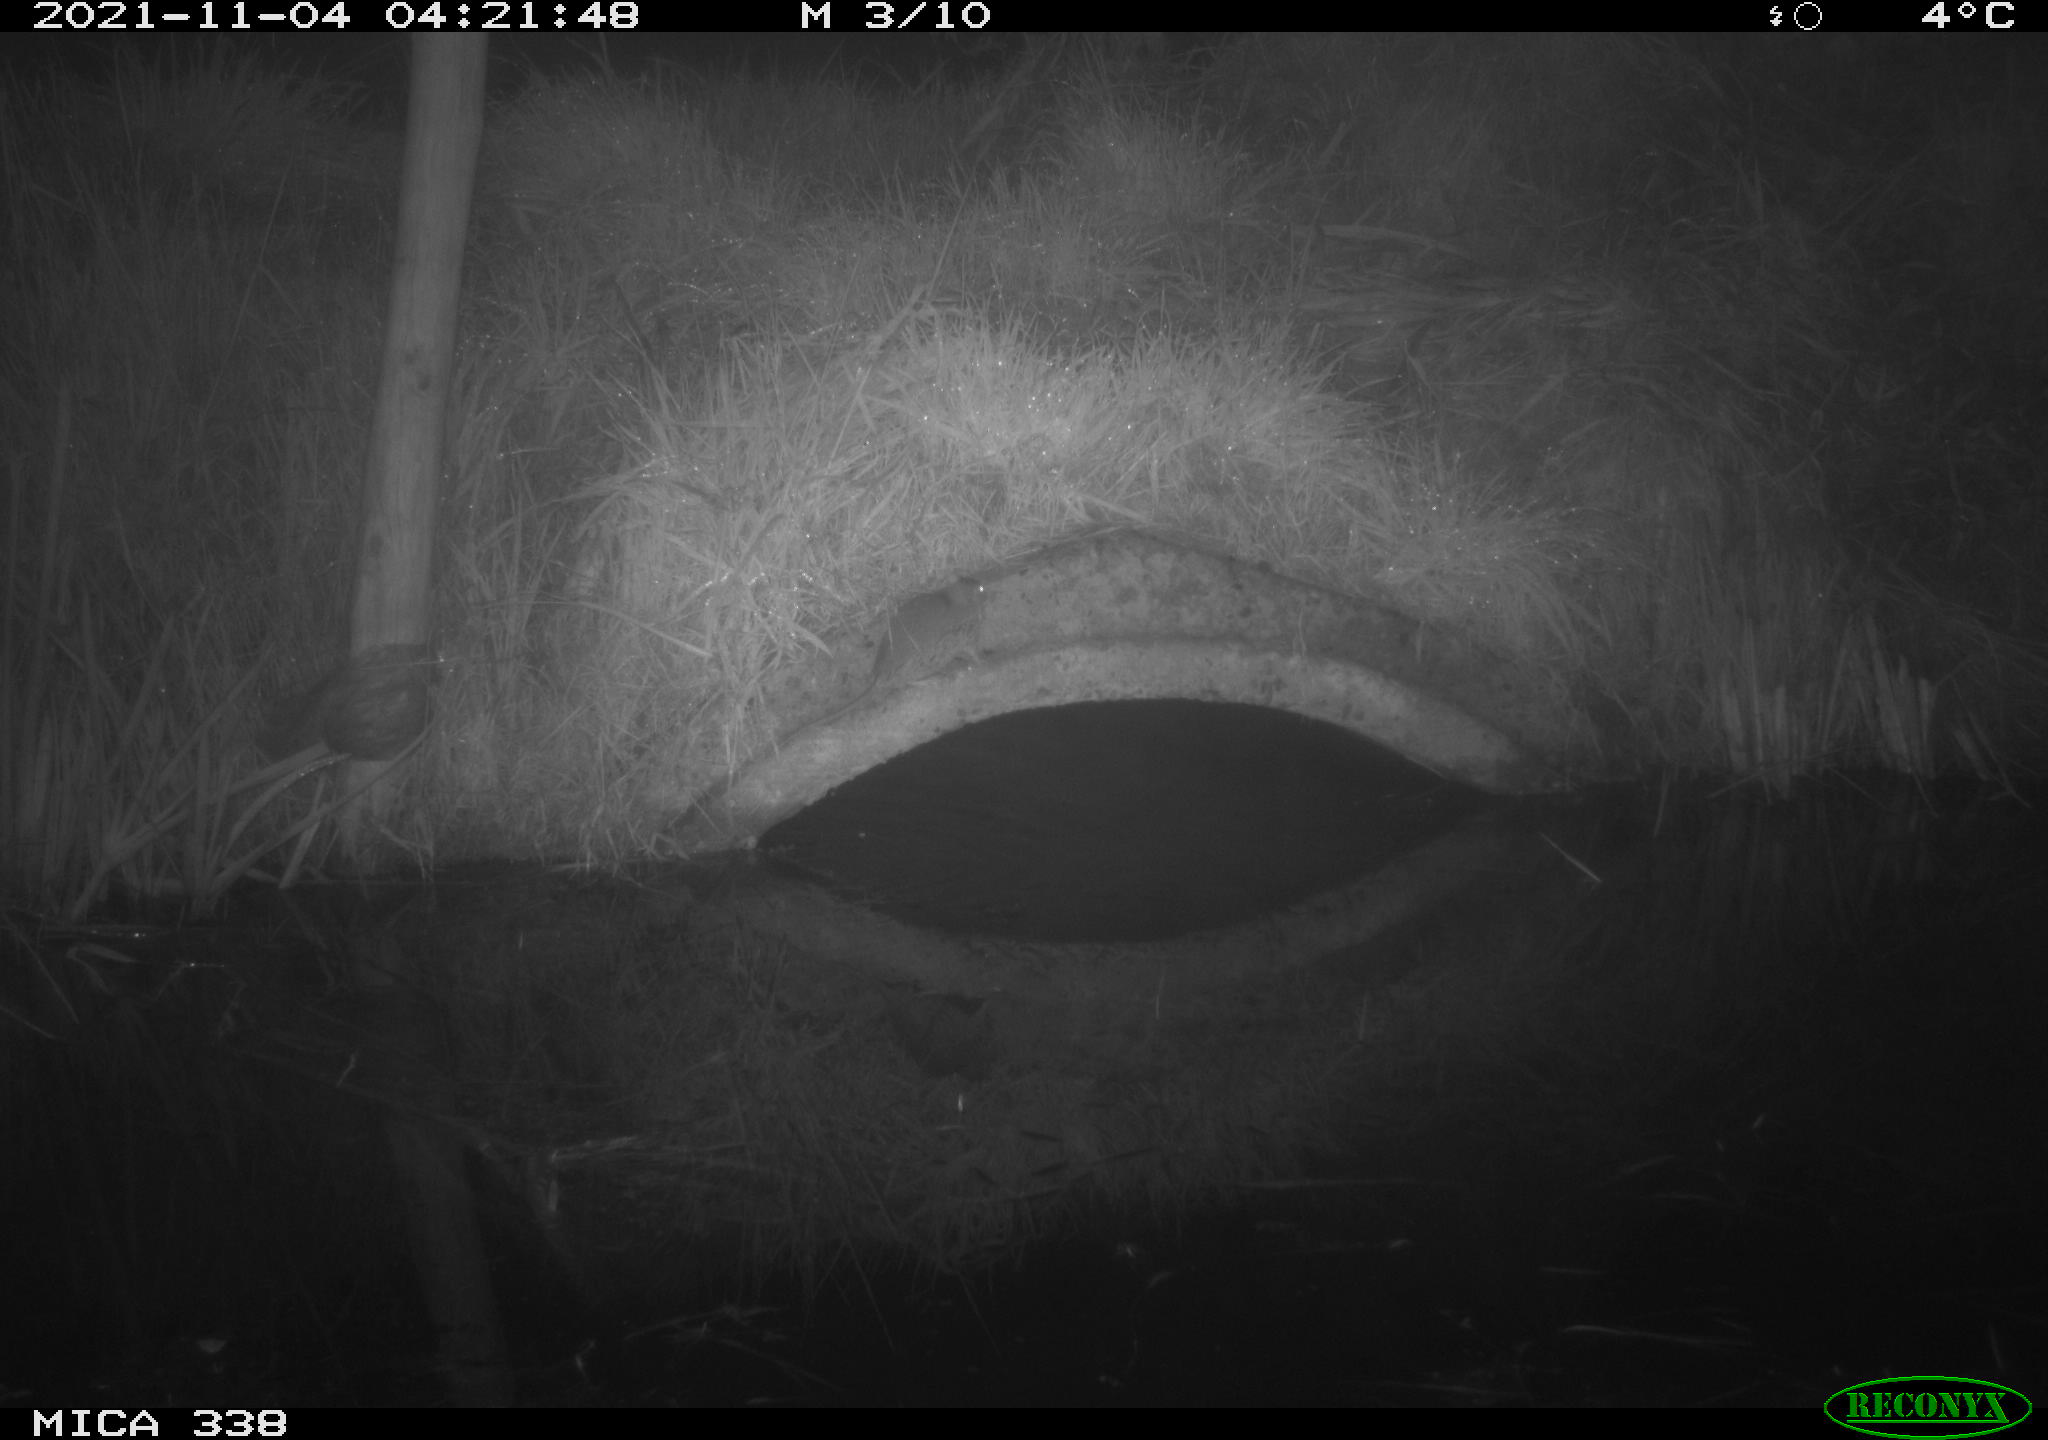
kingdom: Animalia
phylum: Chordata
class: Mammalia
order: Rodentia
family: Muridae
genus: Rattus
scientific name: Rattus norvegicus
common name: Brown rat
